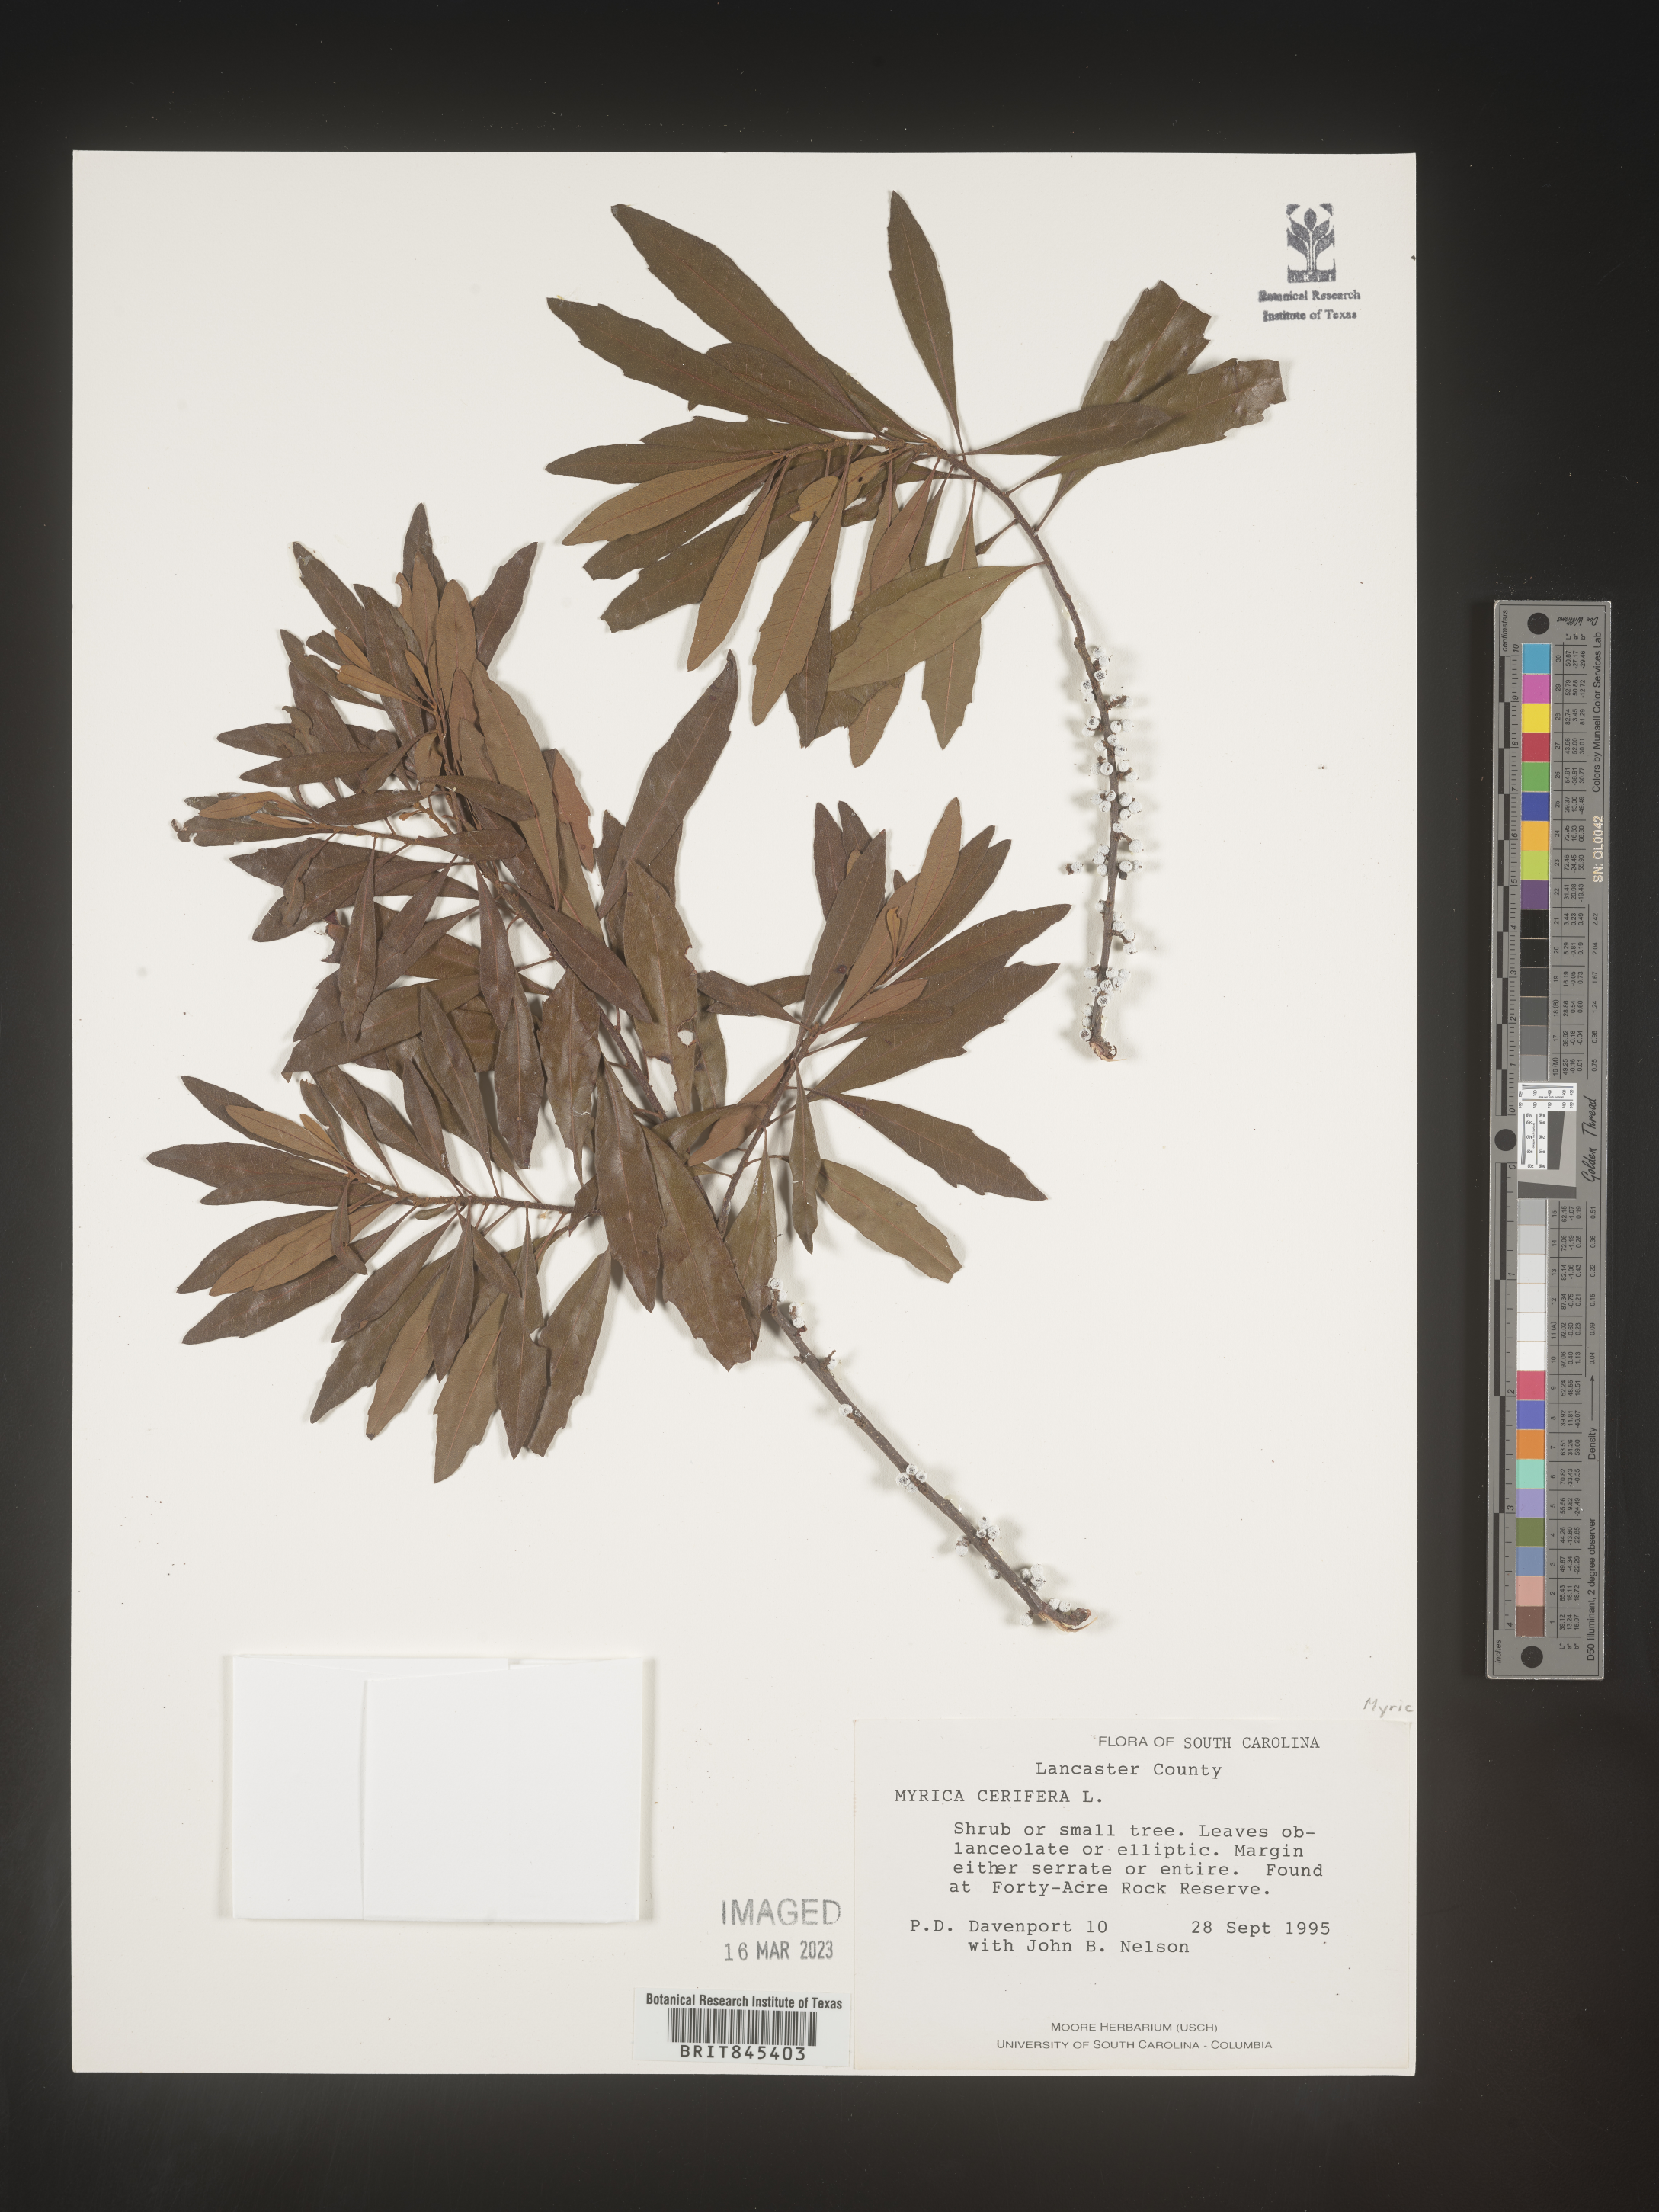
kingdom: Plantae
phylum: Tracheophyta
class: Magnoliopsida
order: Fagales
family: Myricaceae
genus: Morella
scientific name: Morella cerifera
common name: Wax myrtle
